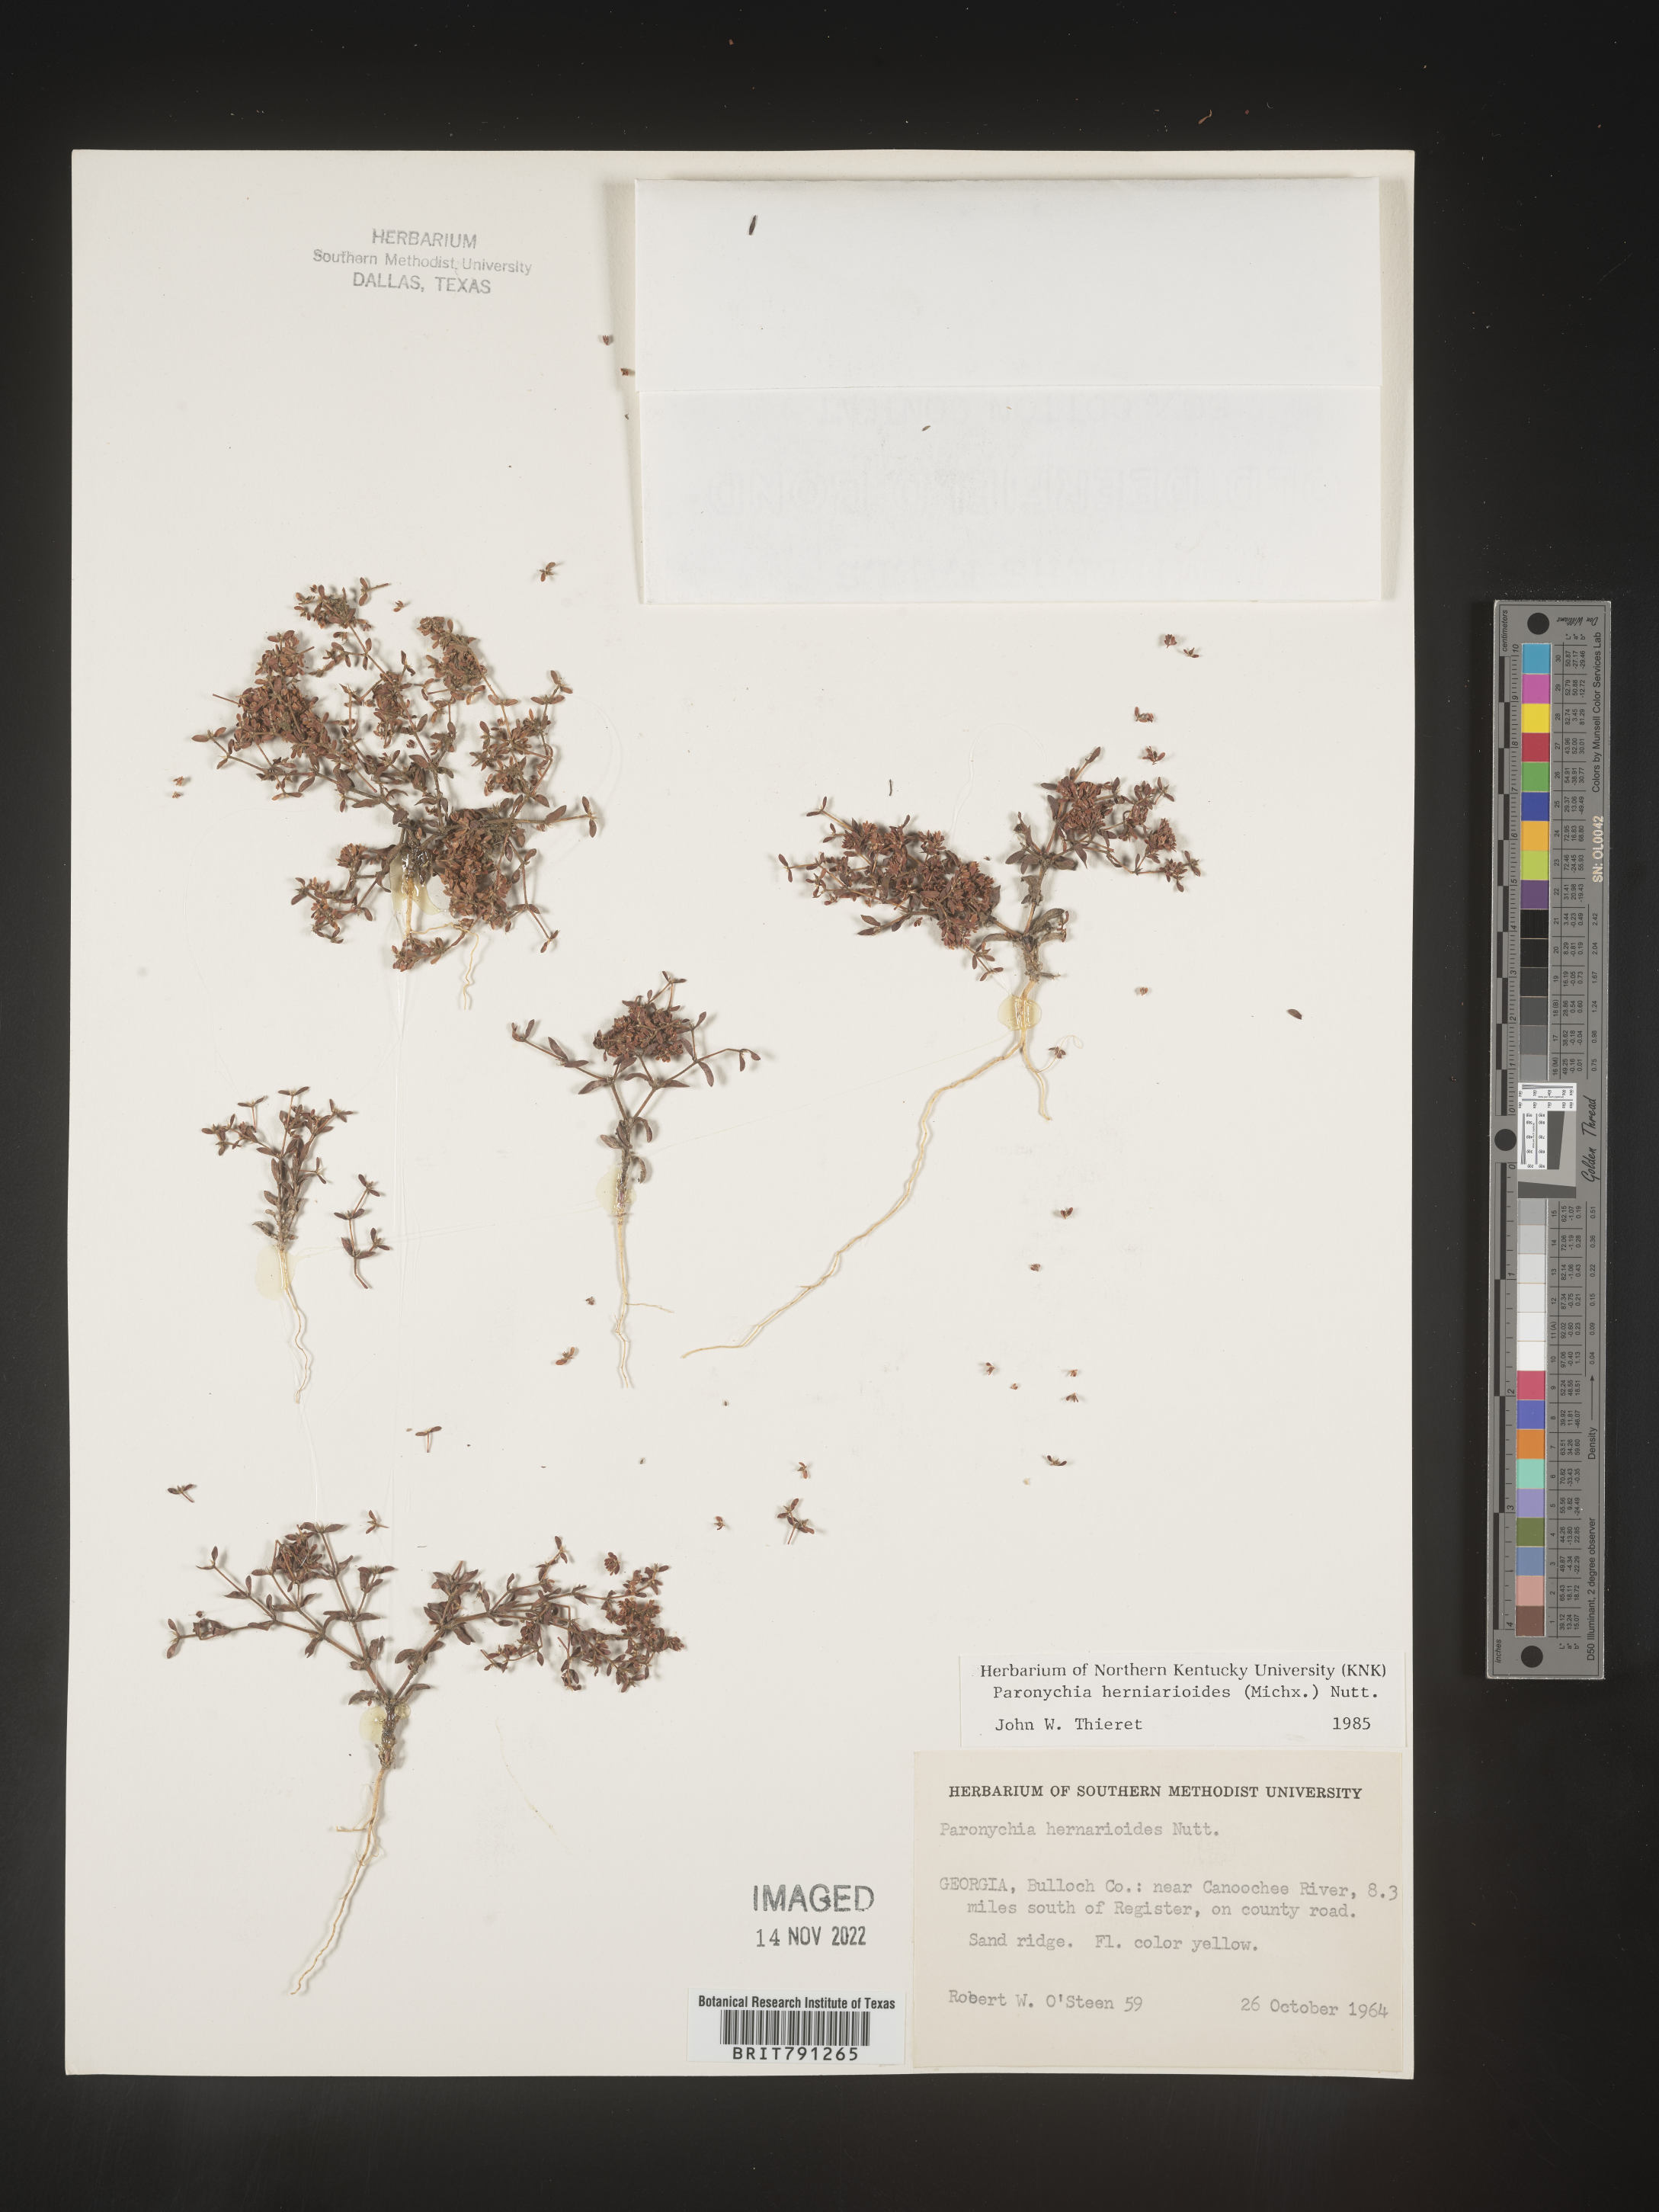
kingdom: Plantae
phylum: Tracheophyta
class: Magnoliopsida
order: Caryophyllales
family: Caryophyllaceae
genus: Paronychia
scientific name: Paronychia herniarioides
